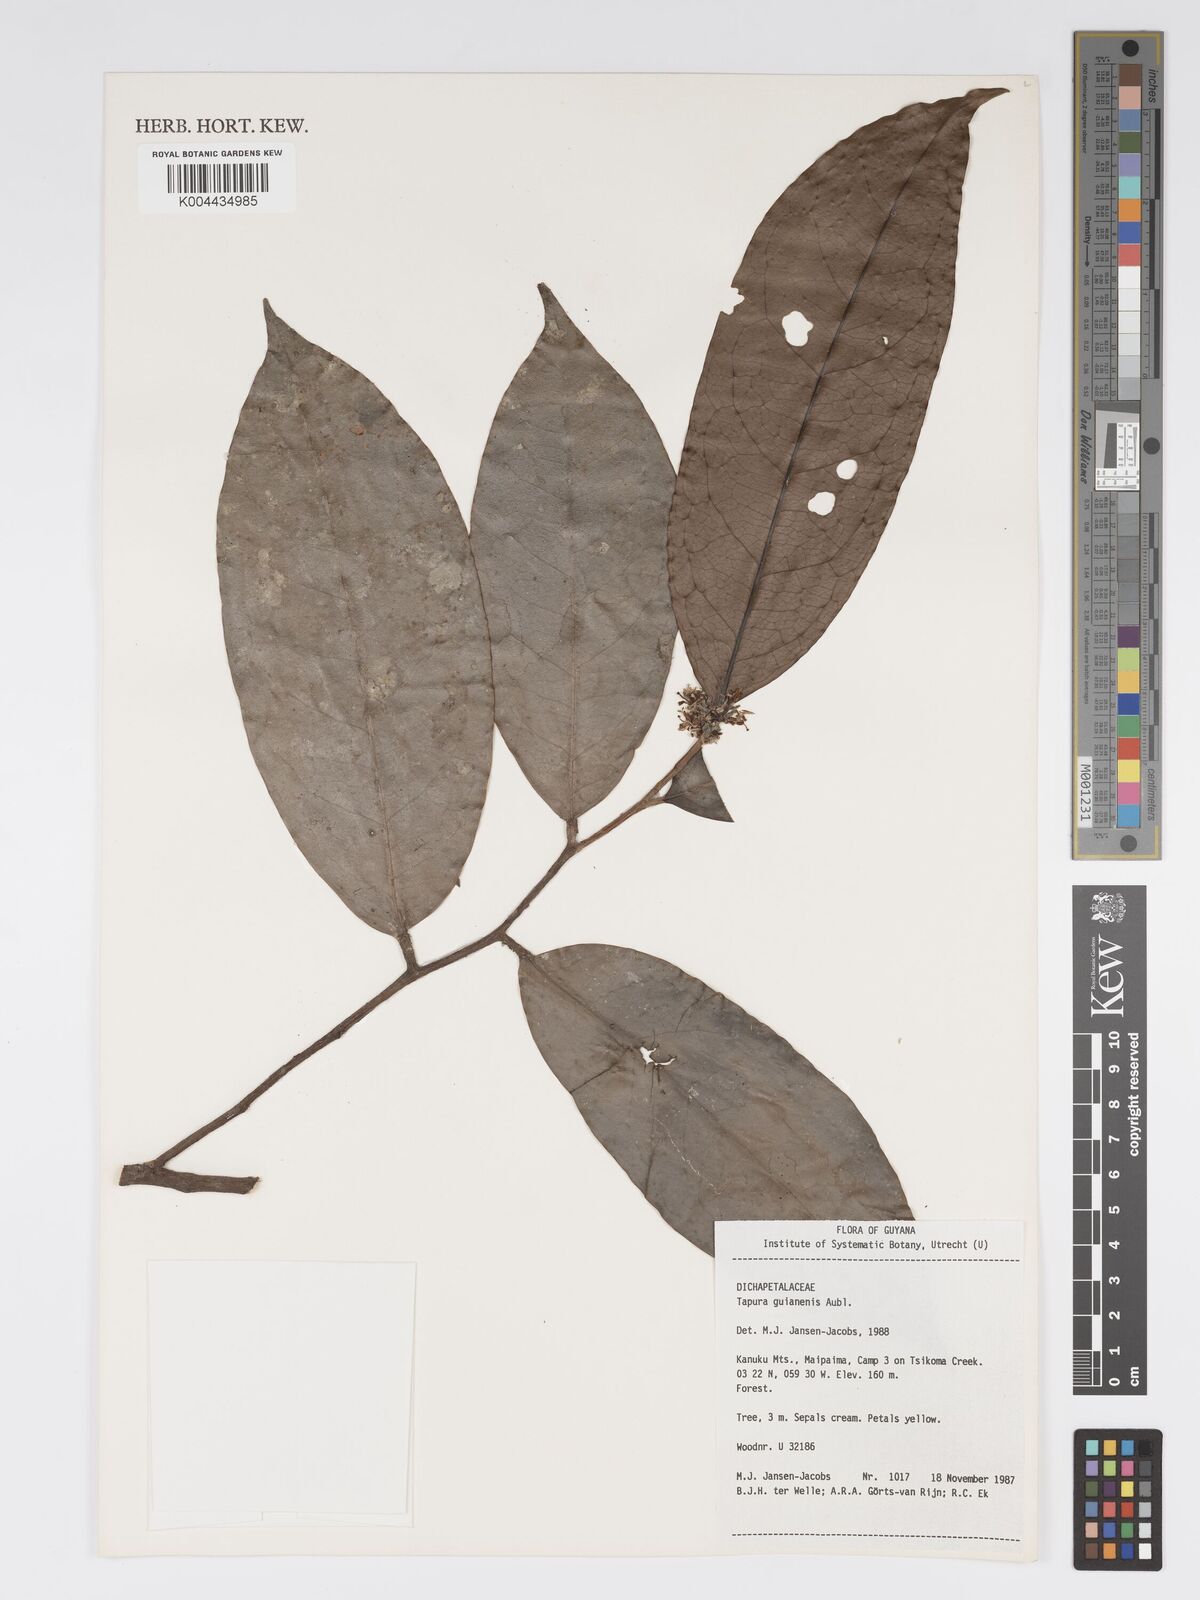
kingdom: Plantae
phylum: Tracheophyta
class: Magnoliopsida
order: Malpighiales
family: Dichapetalaceae
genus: Tapura
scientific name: Tapura guianensis
